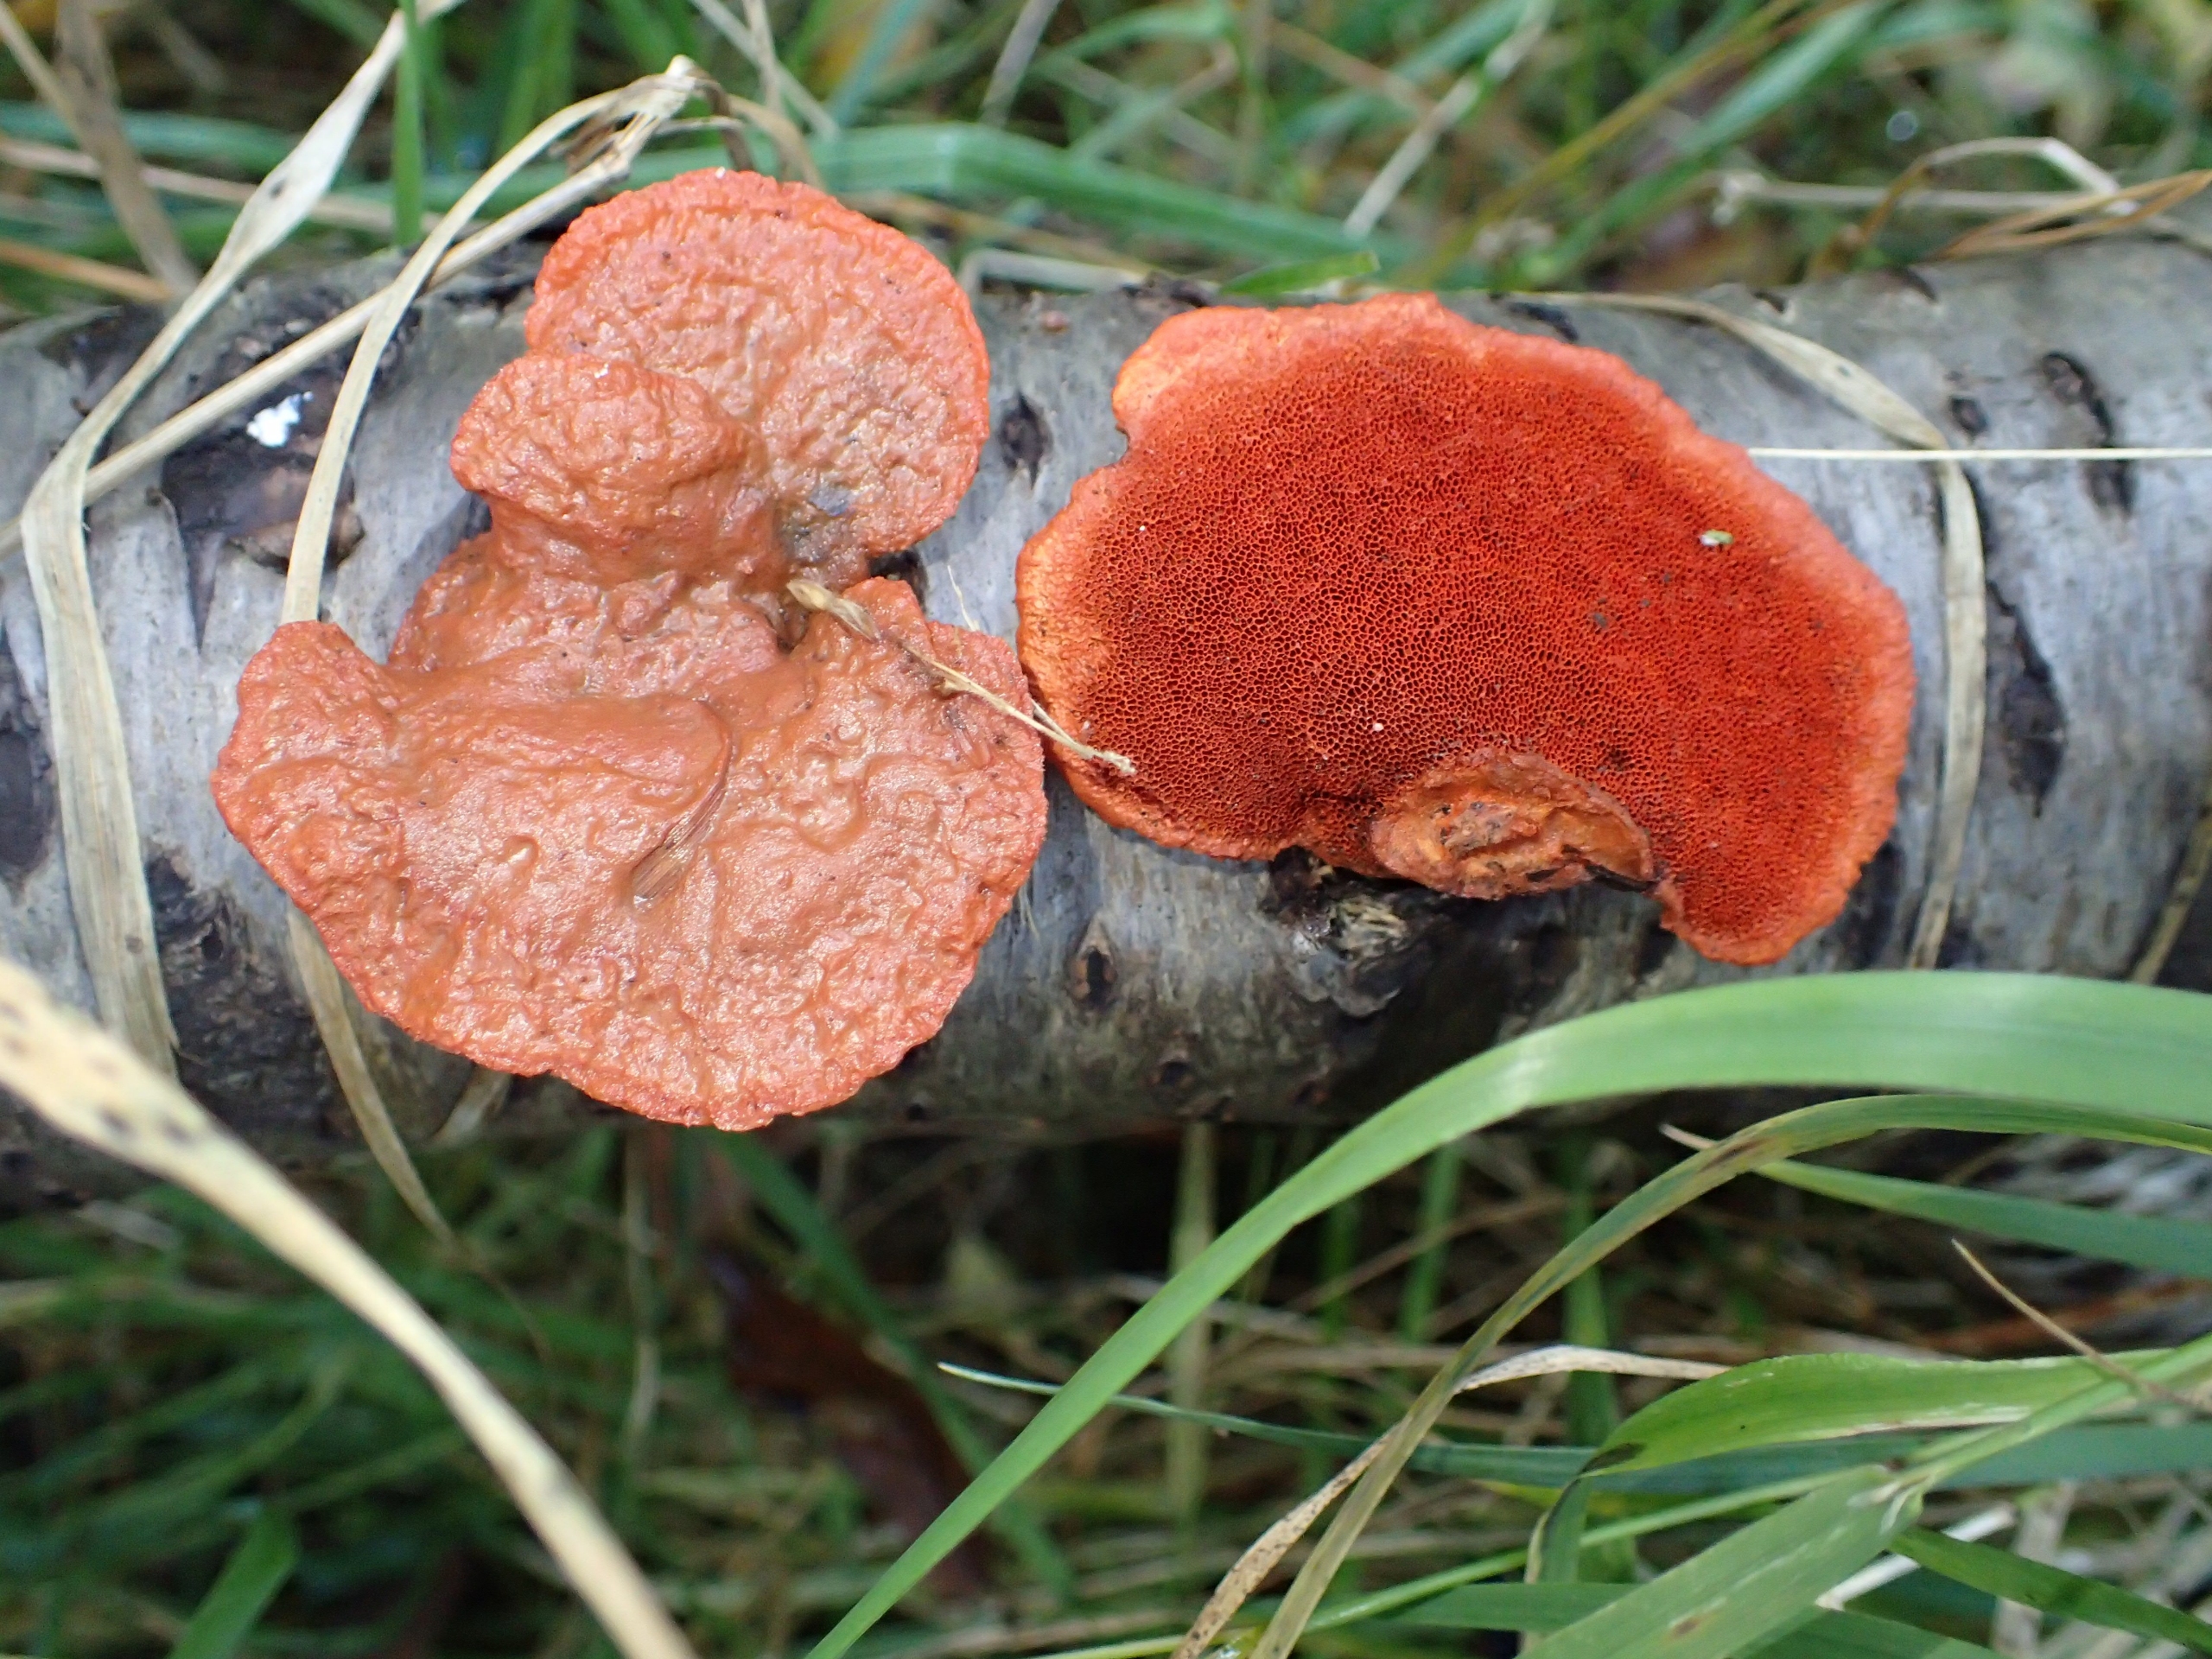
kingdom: Fungi
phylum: Basidiomycota
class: Agaricomycetes
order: Polyporales
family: Polyporaceae
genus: Trametes
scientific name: Trametes cinnabarina
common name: Cinnoberporesvamp
